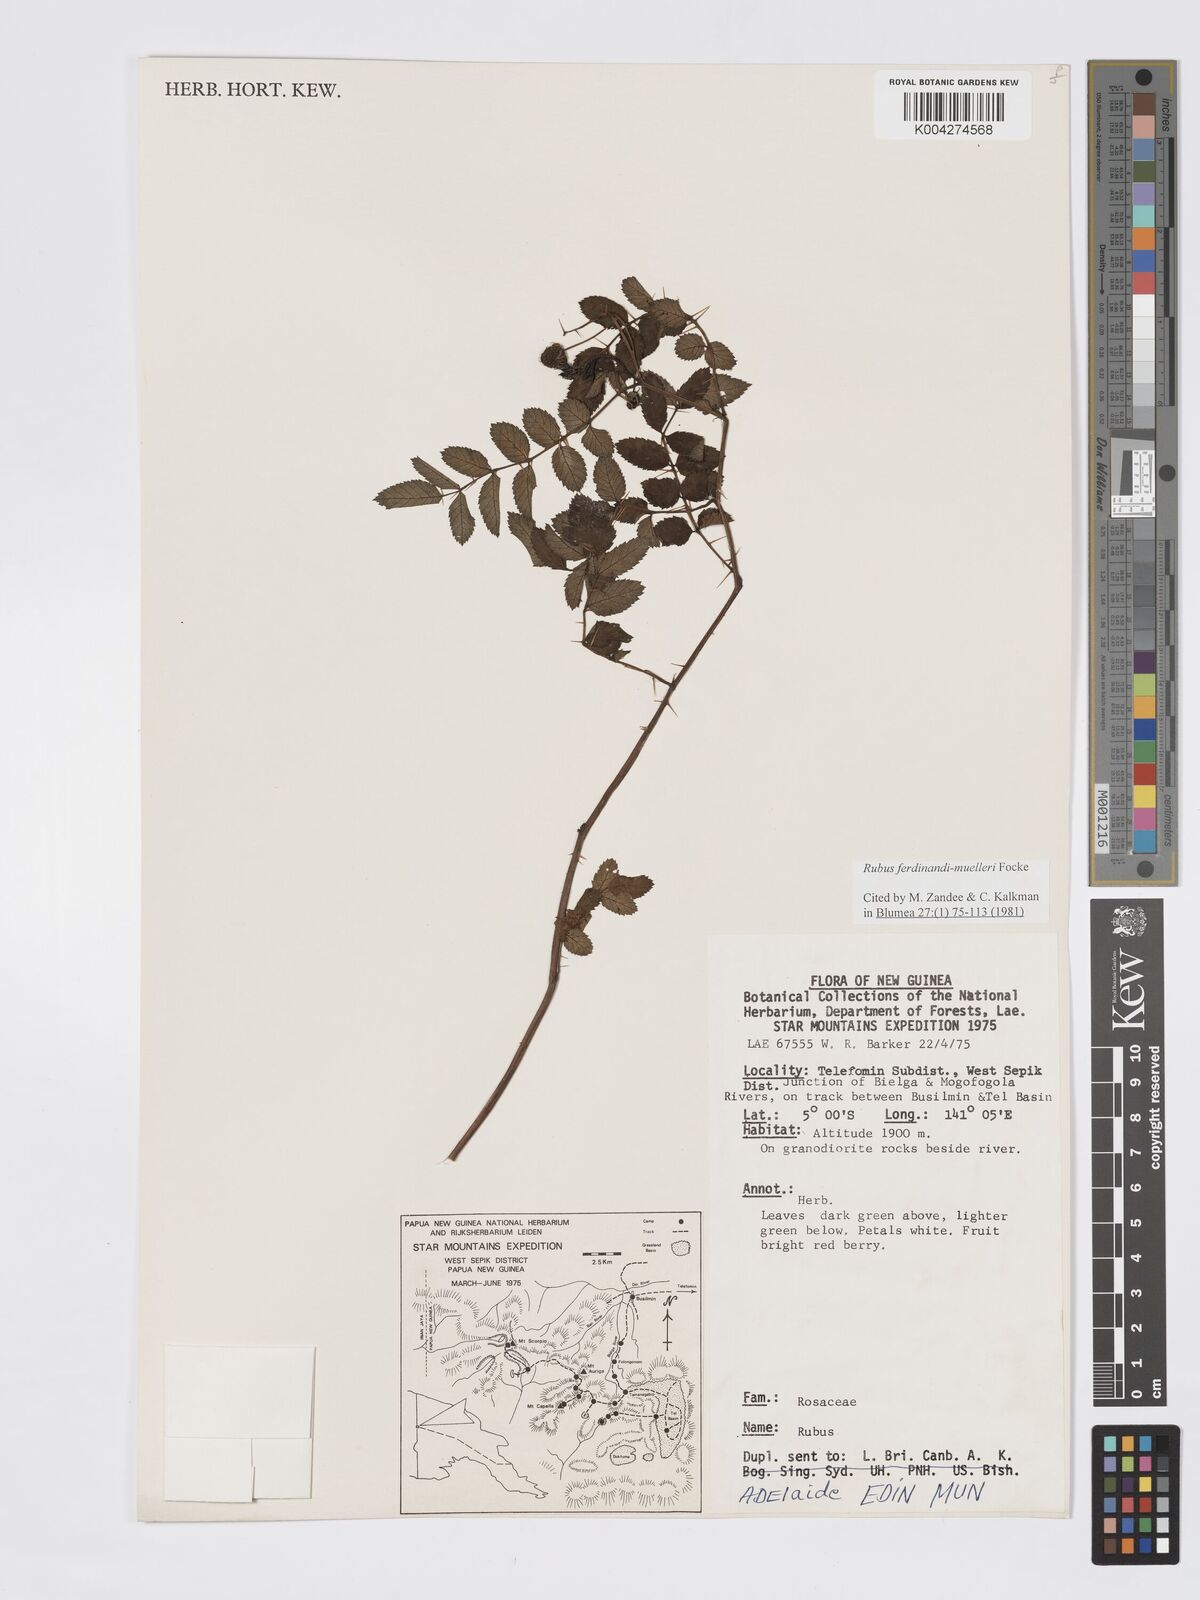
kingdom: Plantae
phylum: Tracheophyta
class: Magnoliopsida
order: Rosales
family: Rosaceae
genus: Rubus
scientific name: Rubus ferdinandimuelleri
